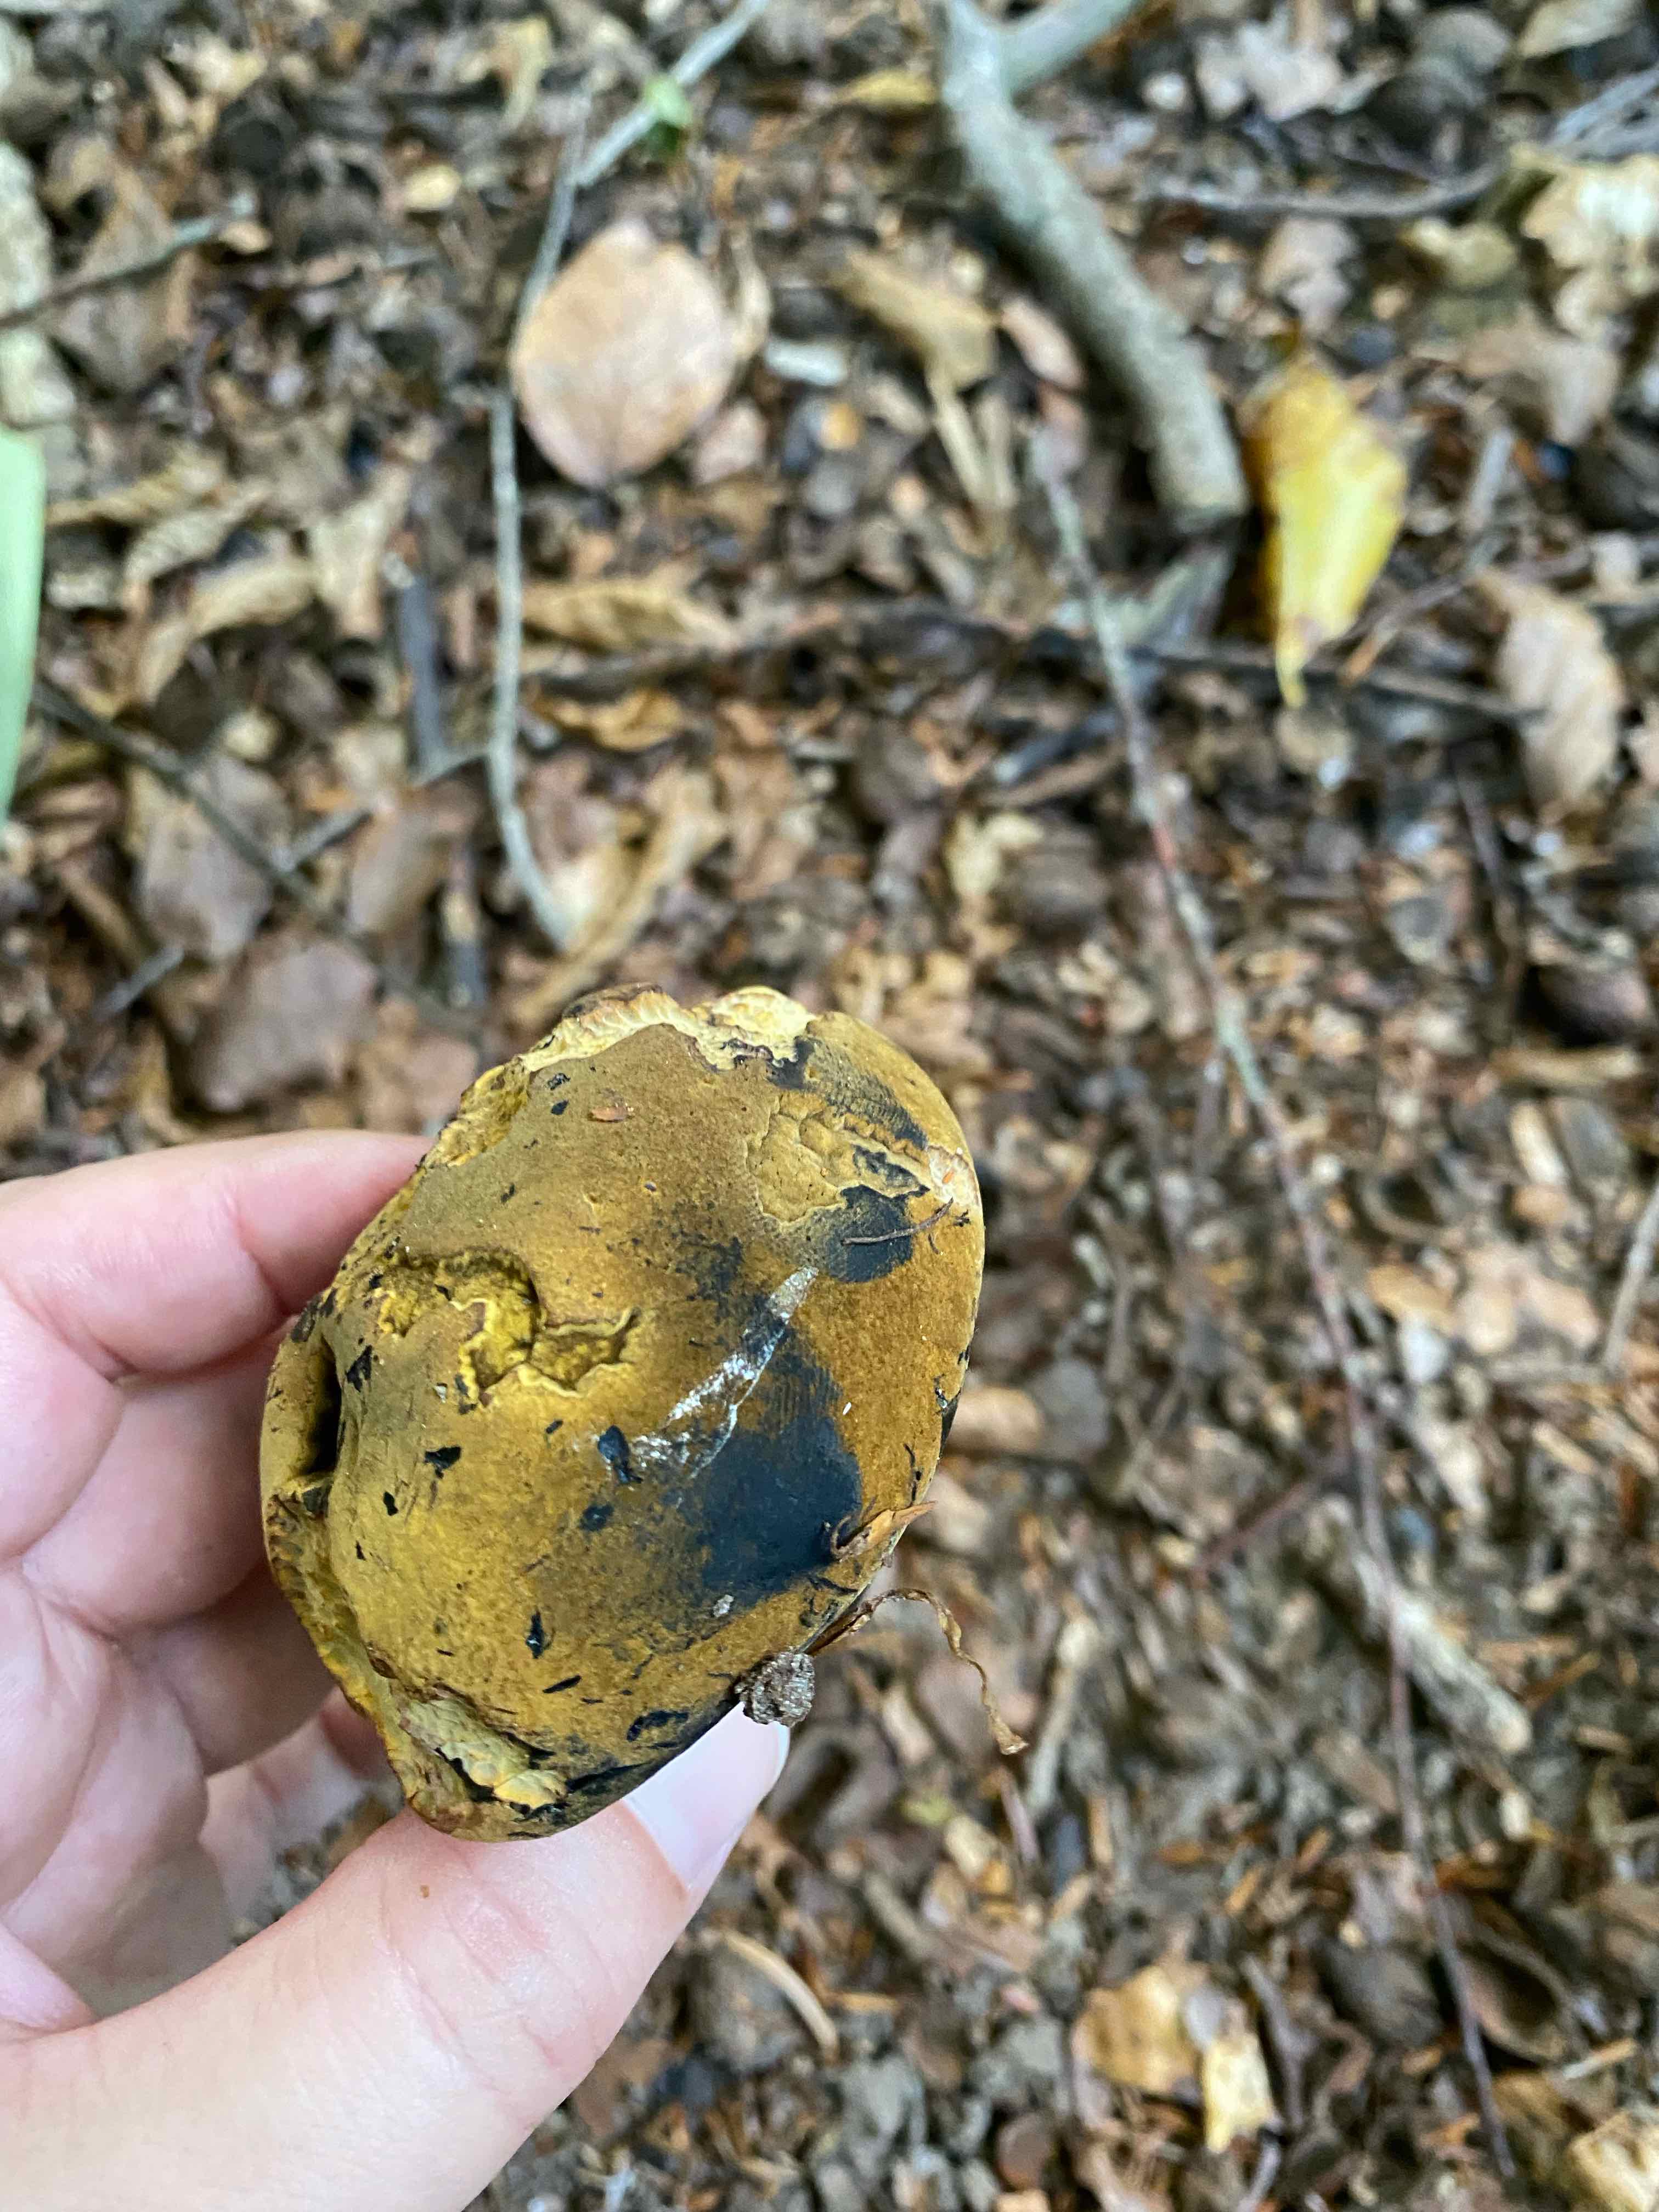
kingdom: Fungi
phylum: Basidiomycota
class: Agaricomycetes
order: Boletales
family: Boletaceae
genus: Neoboletus
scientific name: Neoboletus
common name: indigorørhat
